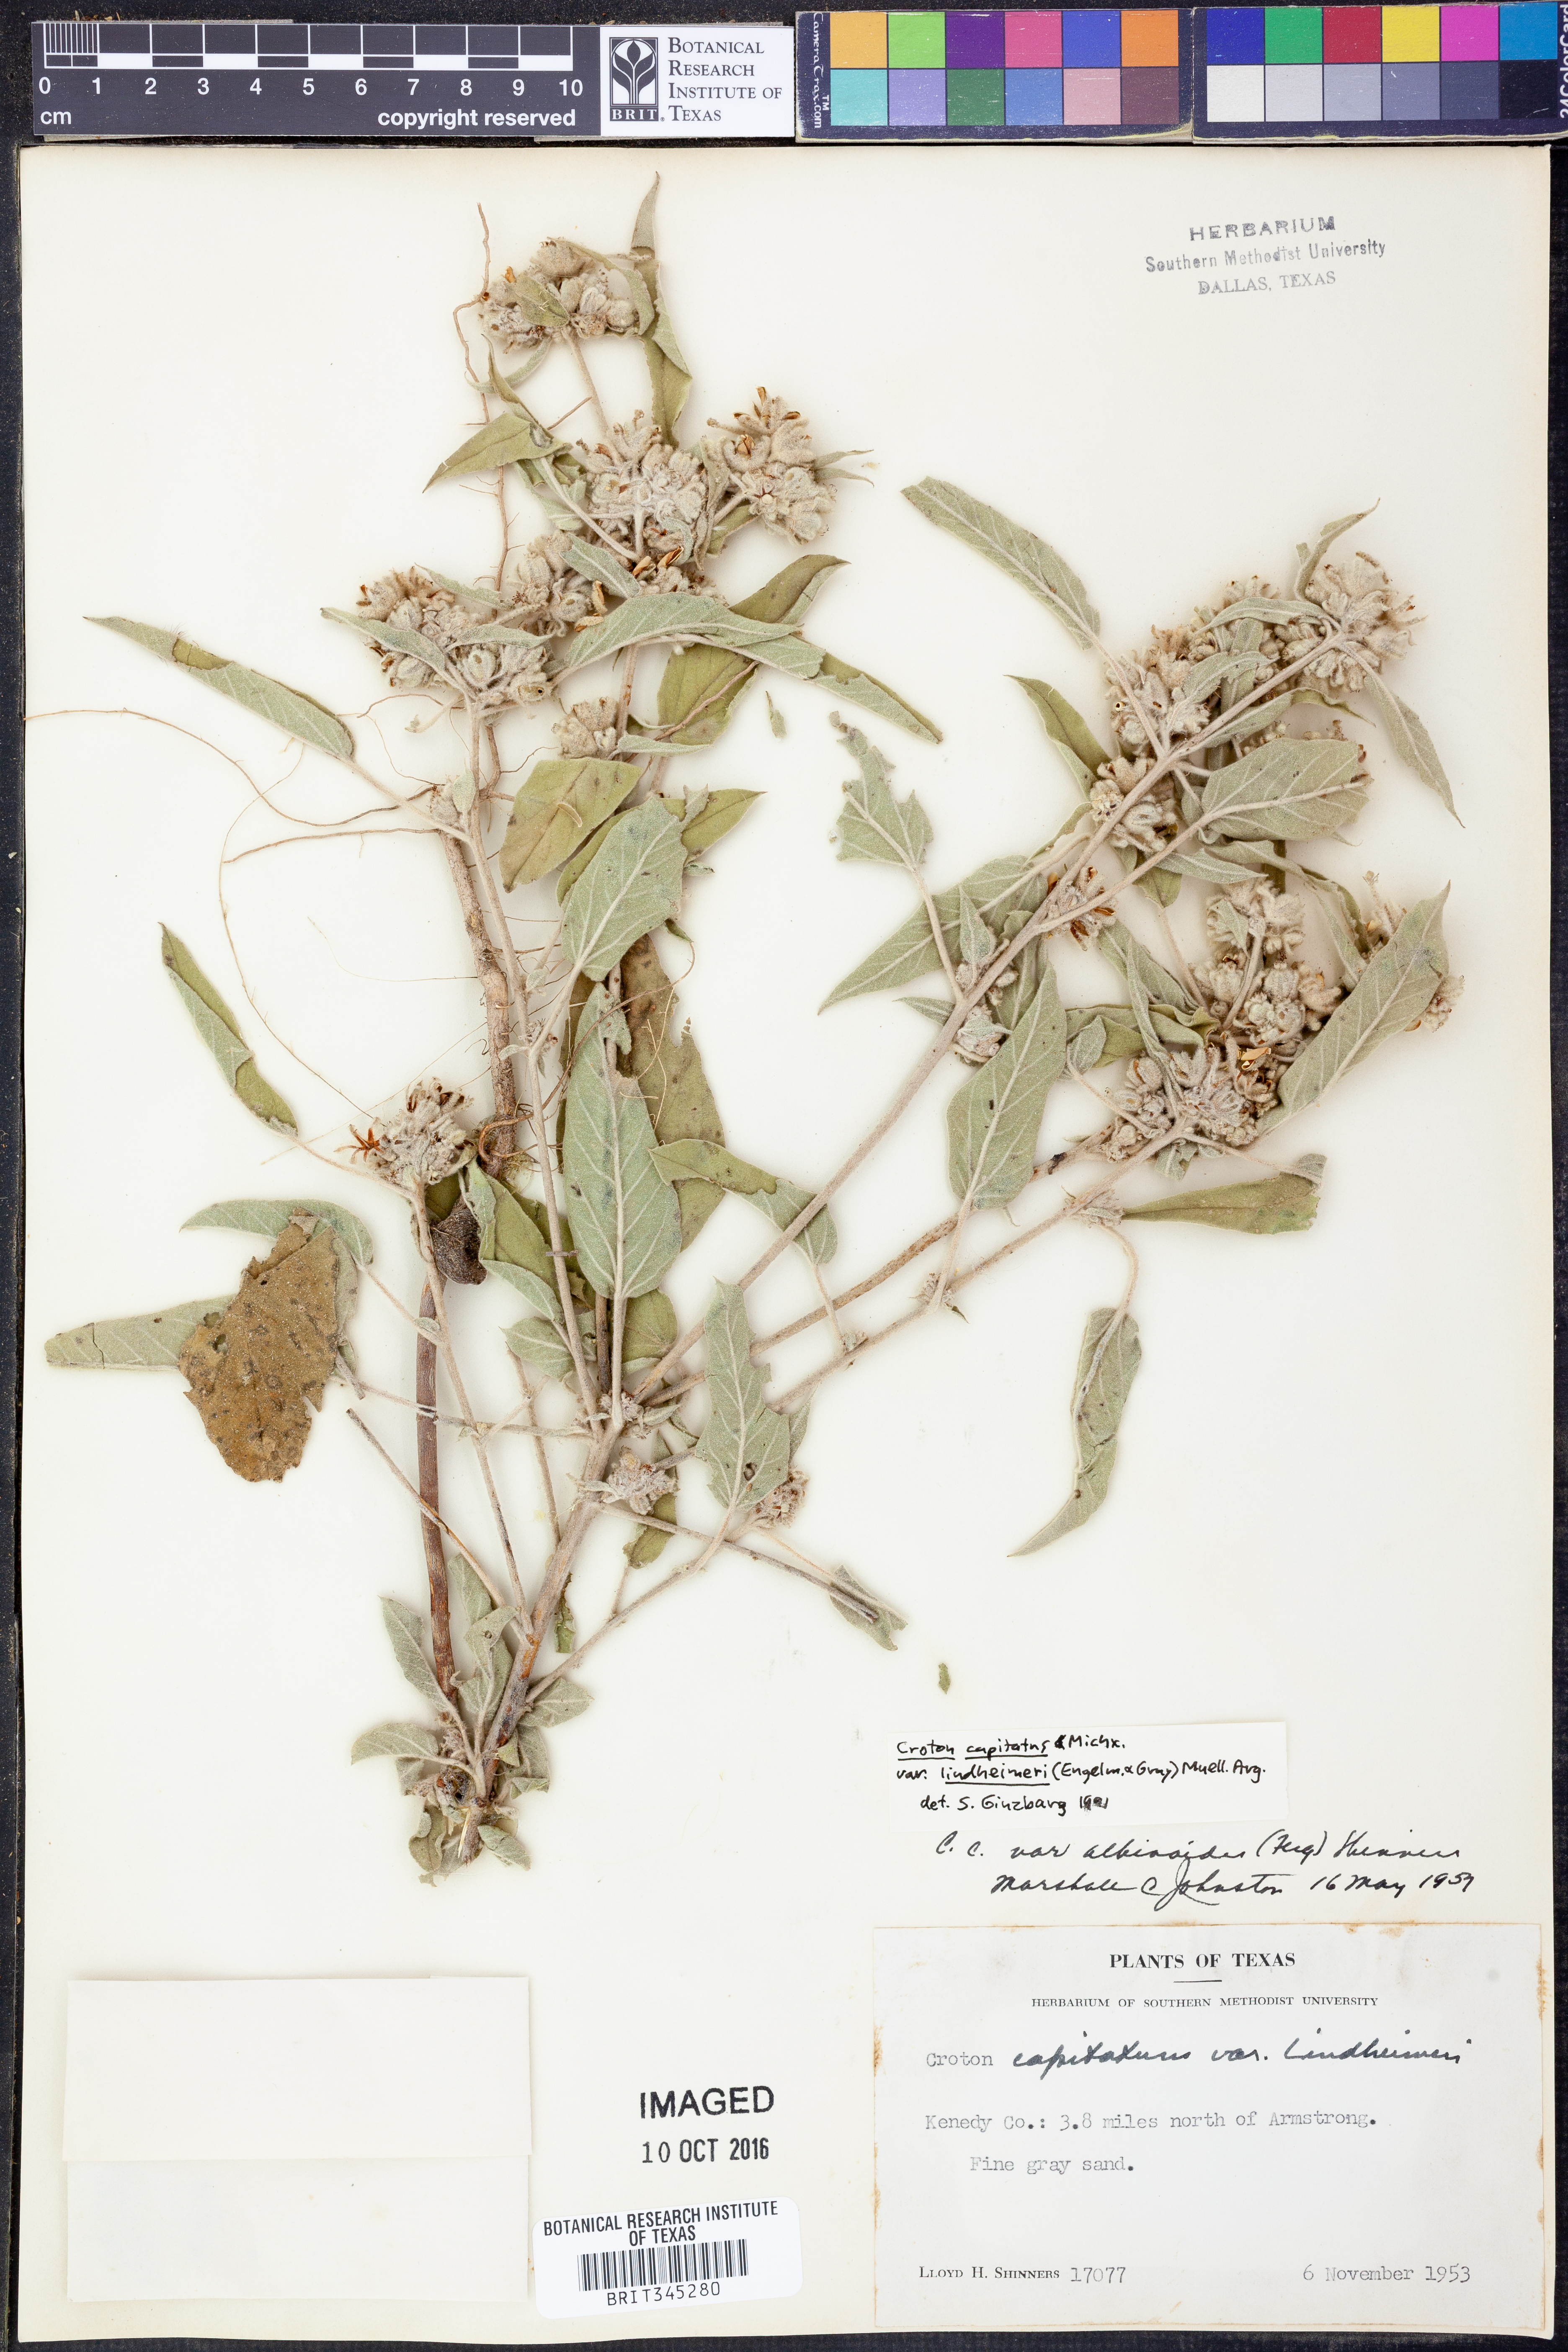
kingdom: Plantae
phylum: Tracheophyta
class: Magnoliopsida
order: Malpighiales
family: Euphorbiaceae
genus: Croton
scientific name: Croton lindheimeri
